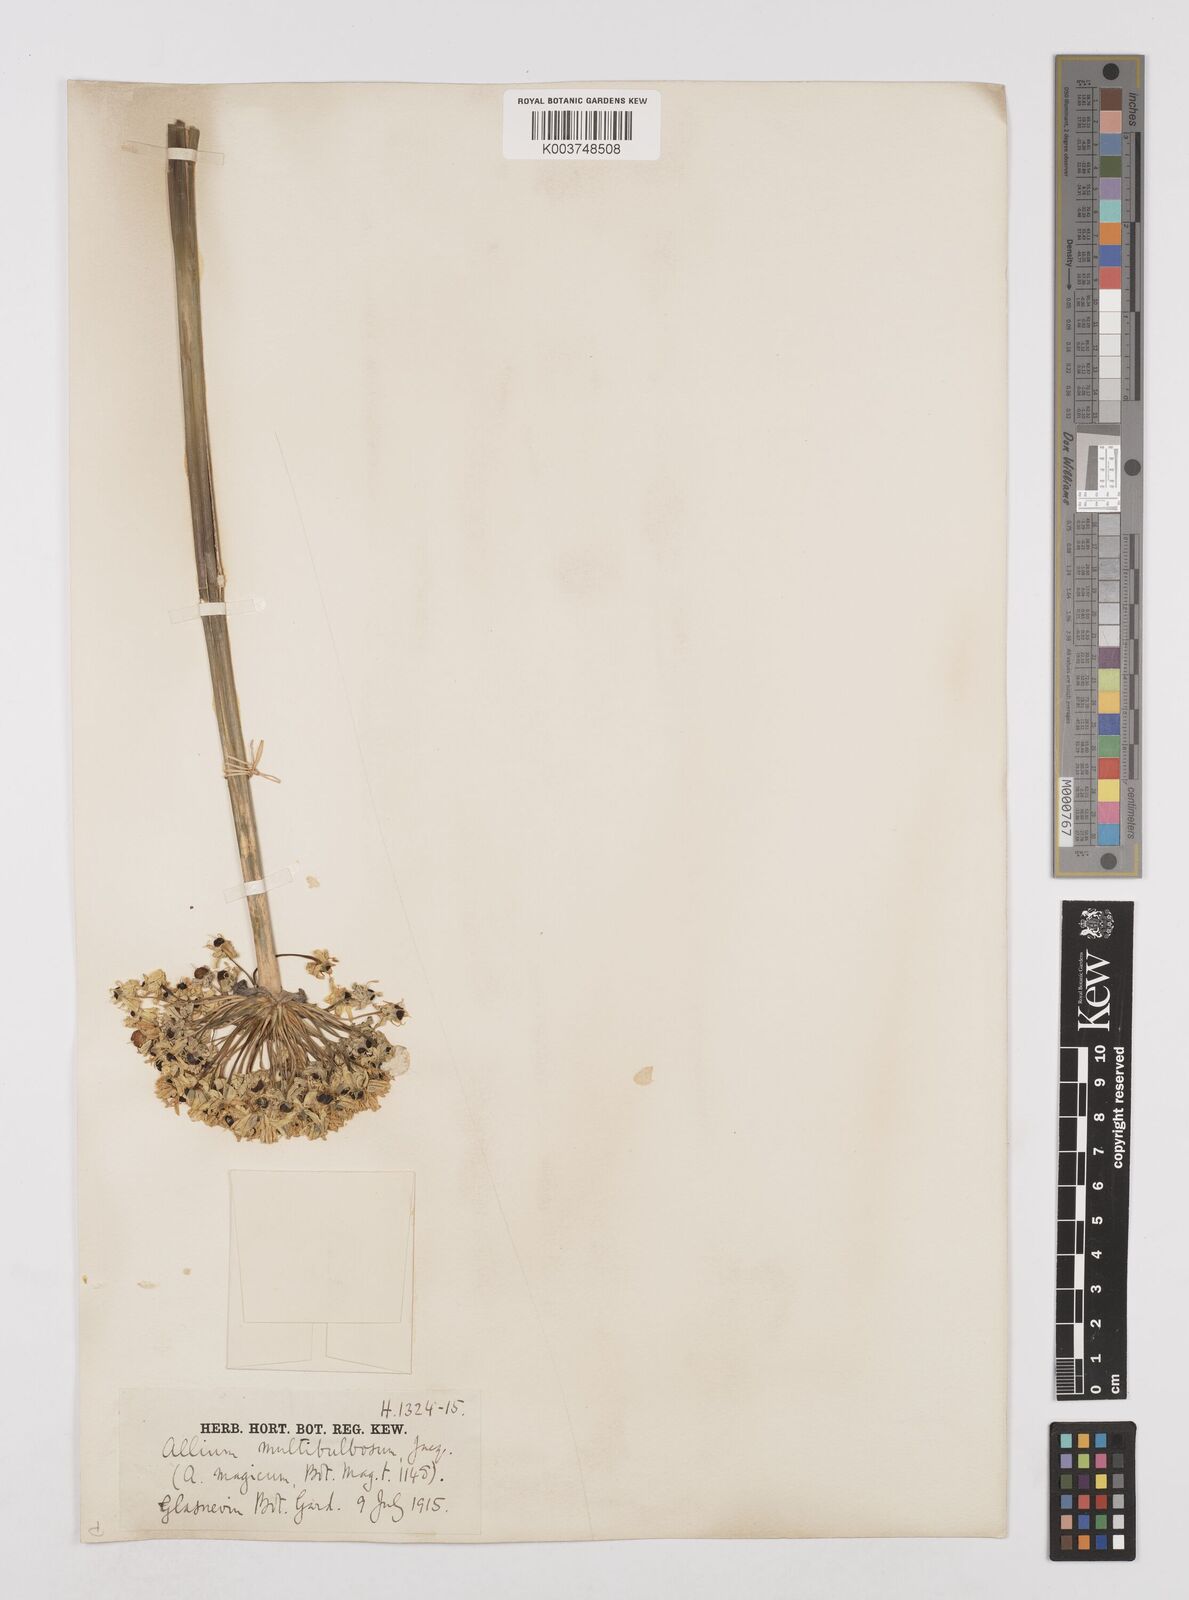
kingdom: Plantae
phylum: Tracheophyta
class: Liliopsida
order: Asparagales
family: Amaryllidaceae
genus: Allium
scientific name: Allium multibulbosum
